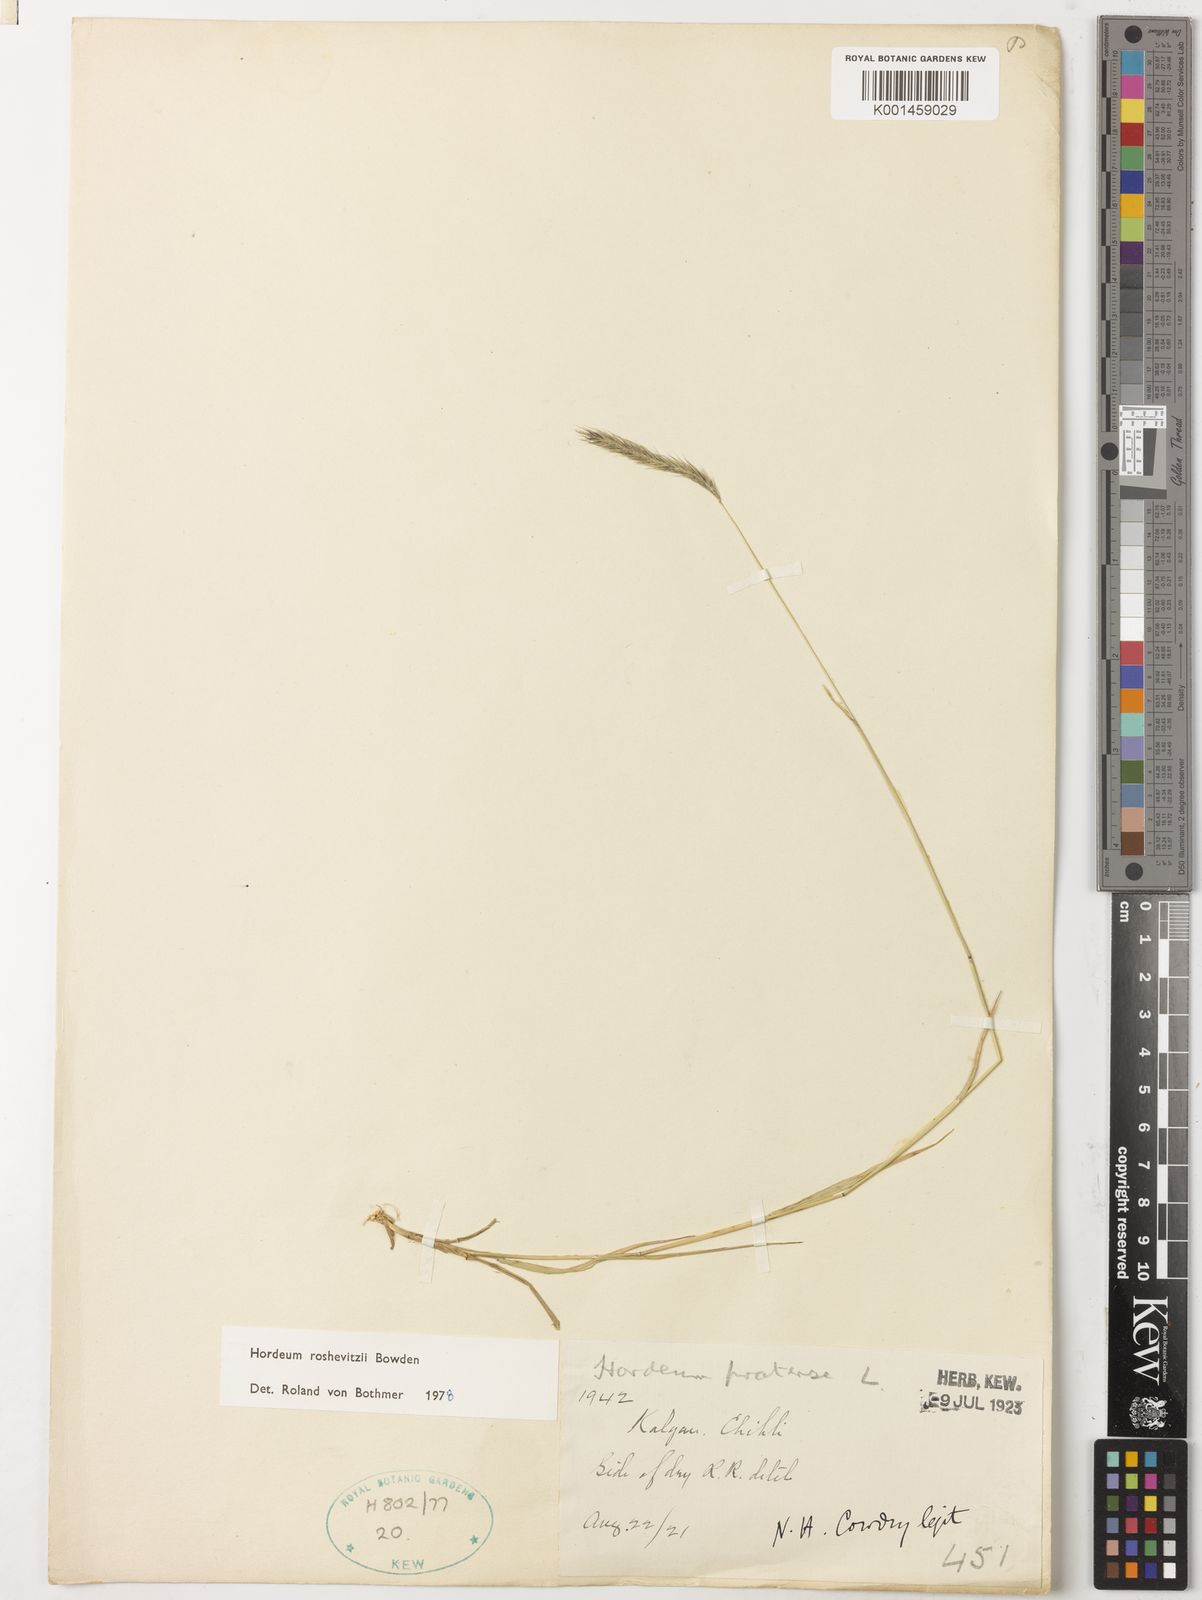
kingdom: Plantae
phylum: Tracheophyta
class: Liliopsida
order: Poales
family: Poaceae
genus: Hordeum
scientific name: Hordeum roshevitzii
